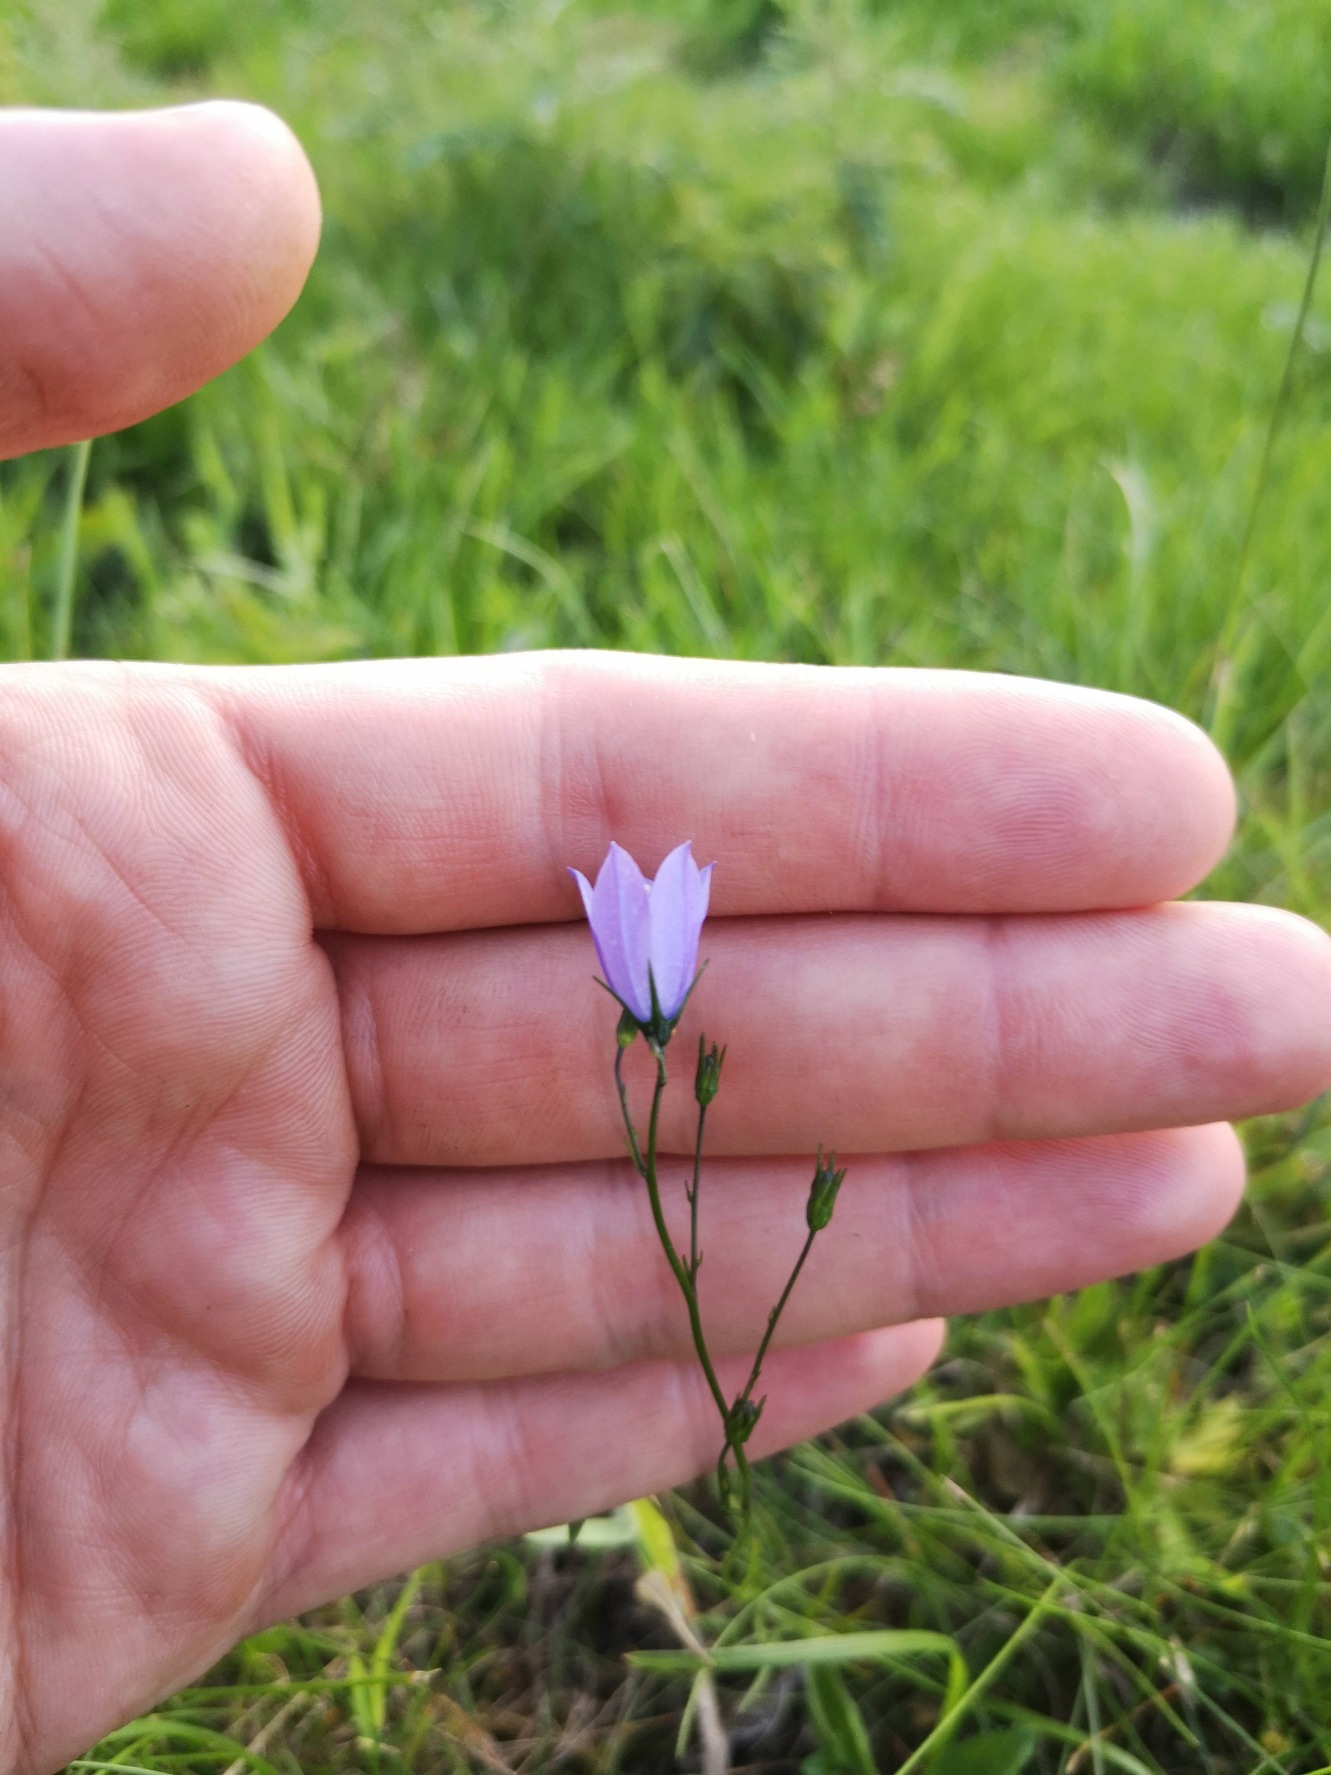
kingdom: Plantae
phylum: Tracheophyta
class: Magnoliopsida
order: Asterales
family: Campanulaceae
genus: Campanula
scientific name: Campanula rotundifolia
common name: Liden klokke
